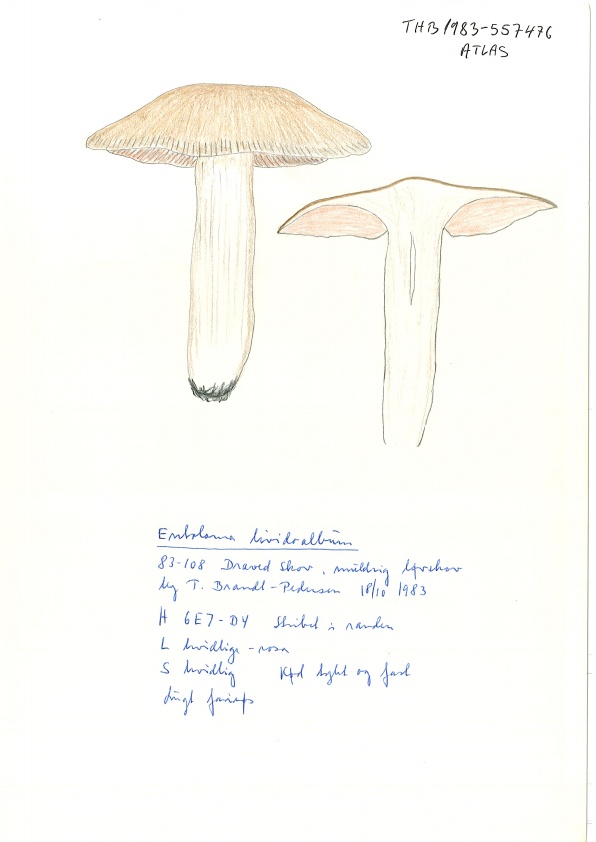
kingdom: Fungi
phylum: Basidiomycota
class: Agaricomycetes
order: Agaricales
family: Entolomataceae
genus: Entoloma
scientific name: Entoloma lividoalbum
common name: lysstokket rødblad
